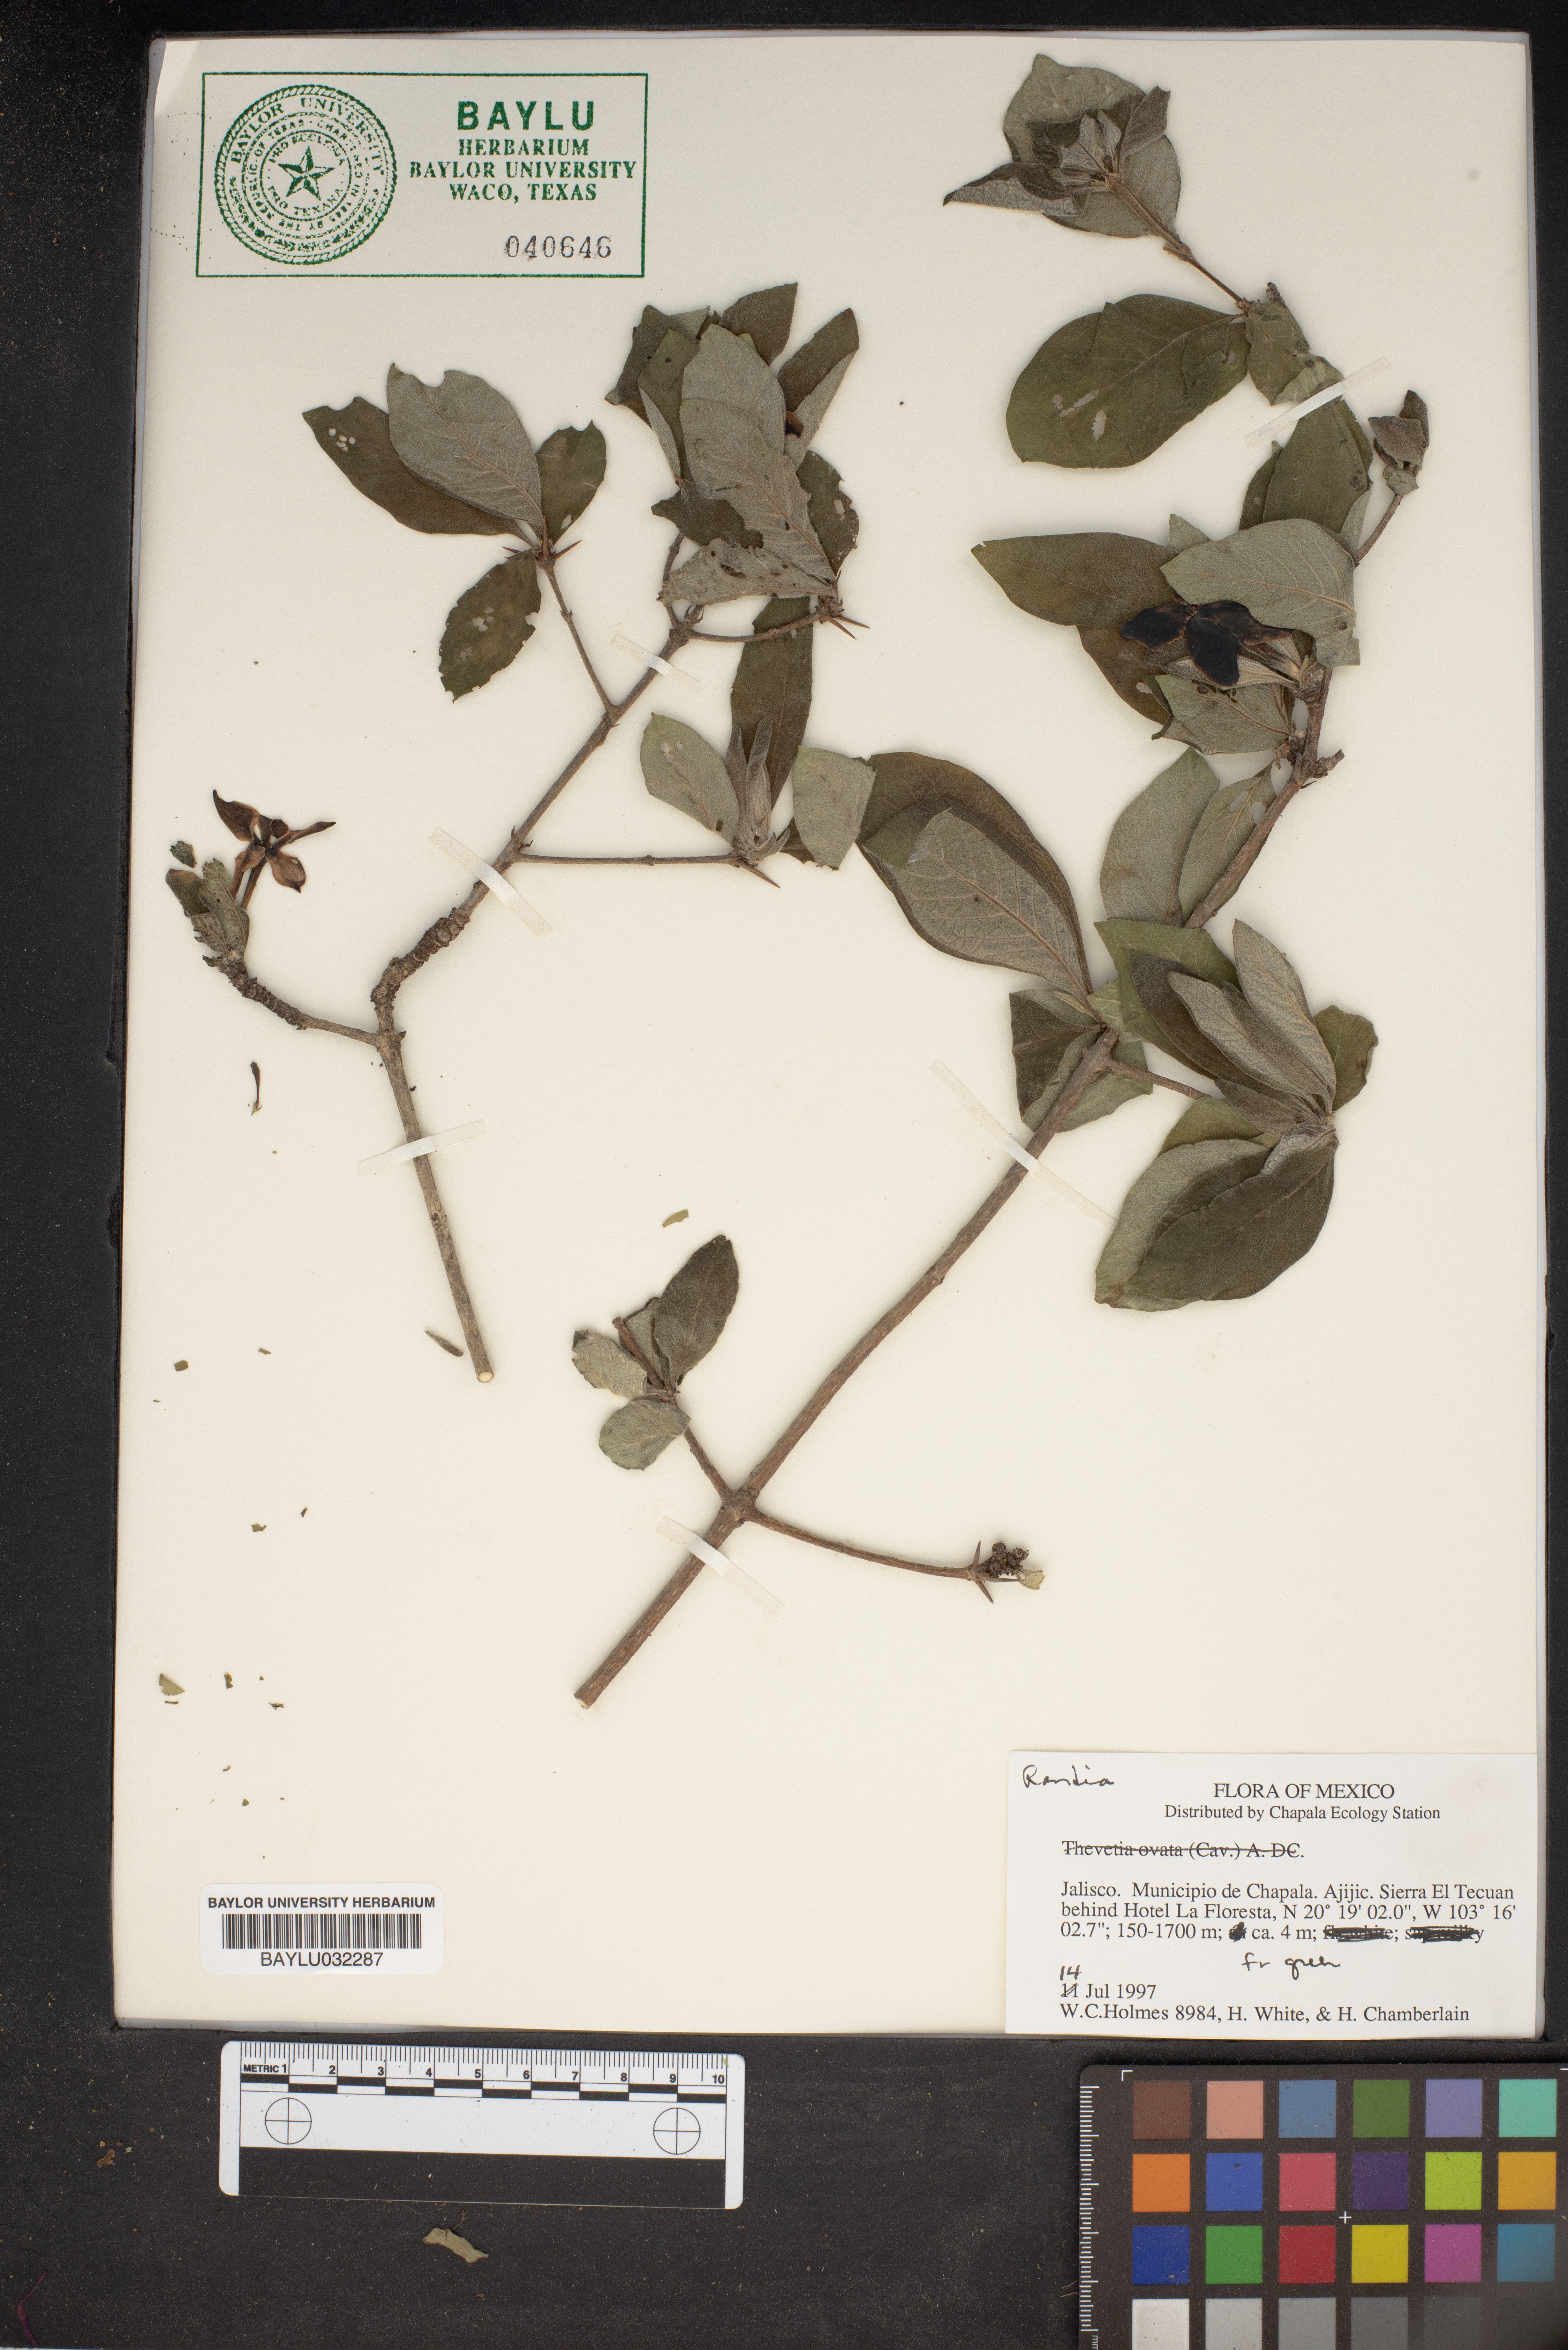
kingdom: Plantae
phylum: Tracheophyta
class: Magnoliopsida
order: Gentianales
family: Rubiaceae
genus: Randia
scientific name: Randia
